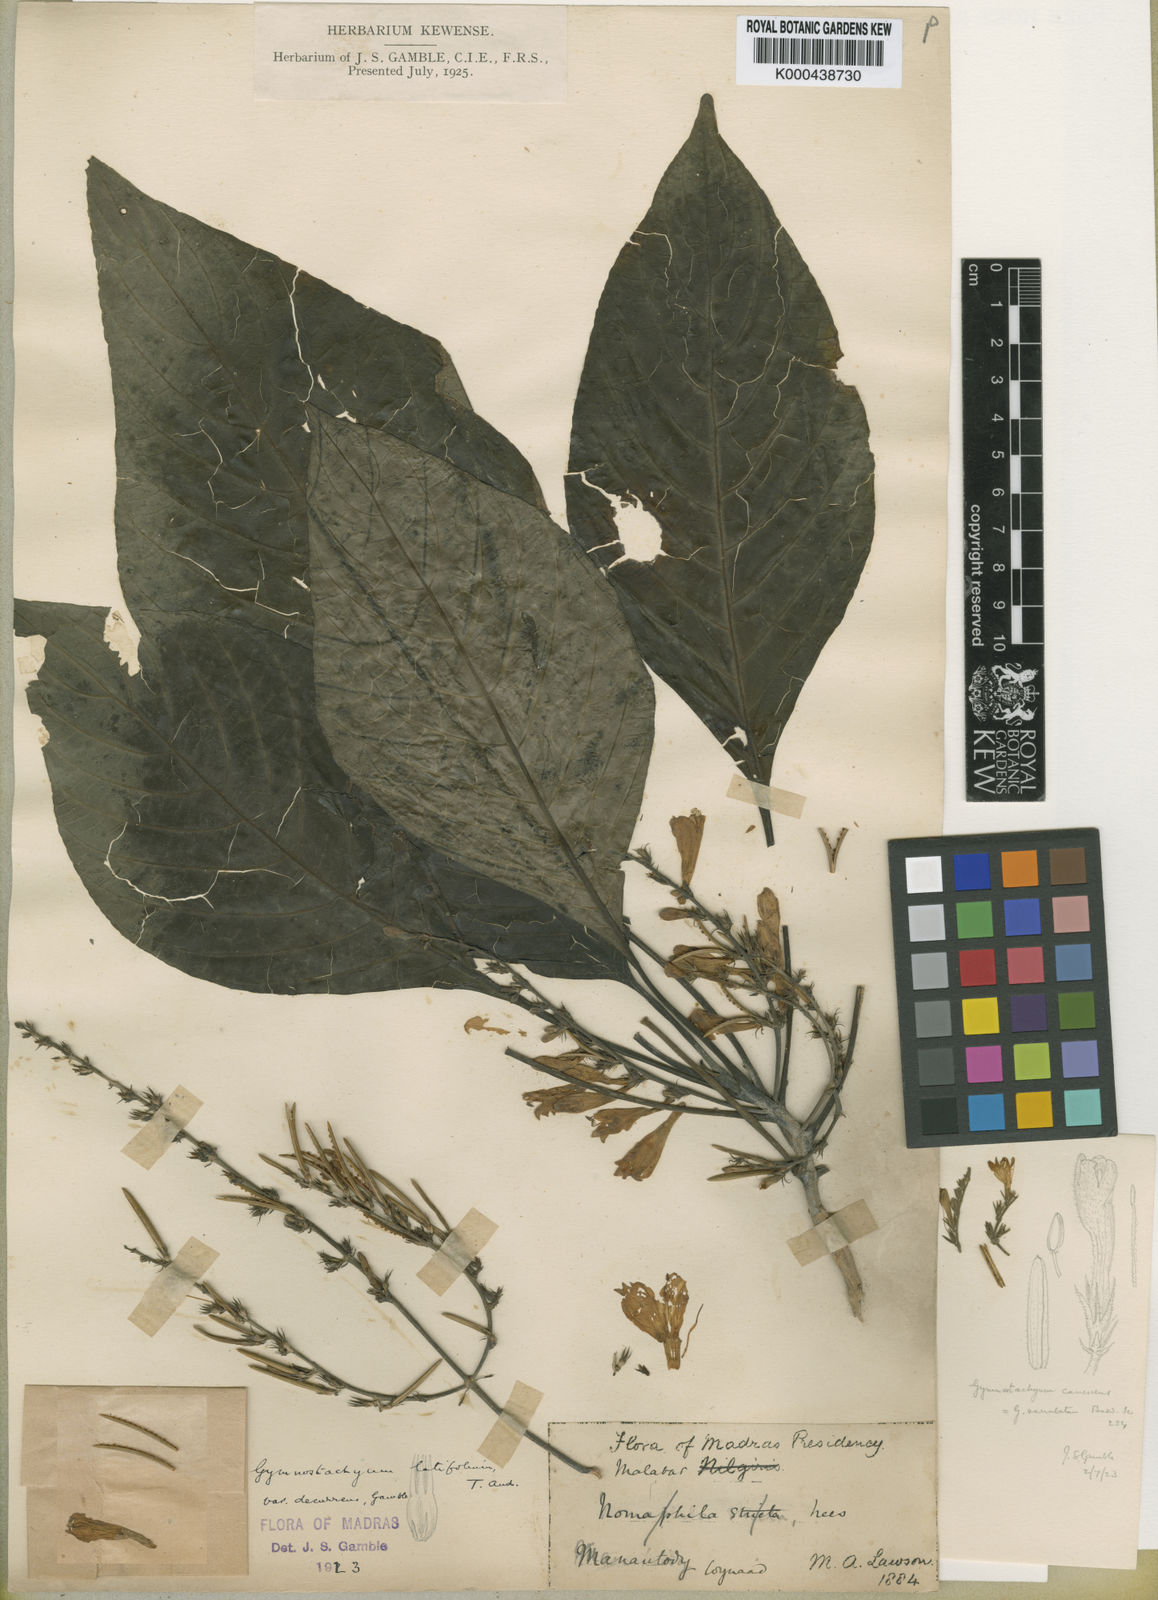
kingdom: Plantae
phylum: Tracheophyta
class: Magnoliopsida
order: Lamiales
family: Acanthaceae
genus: Gymnostachyum
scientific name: Gymnostachyum latifolium
